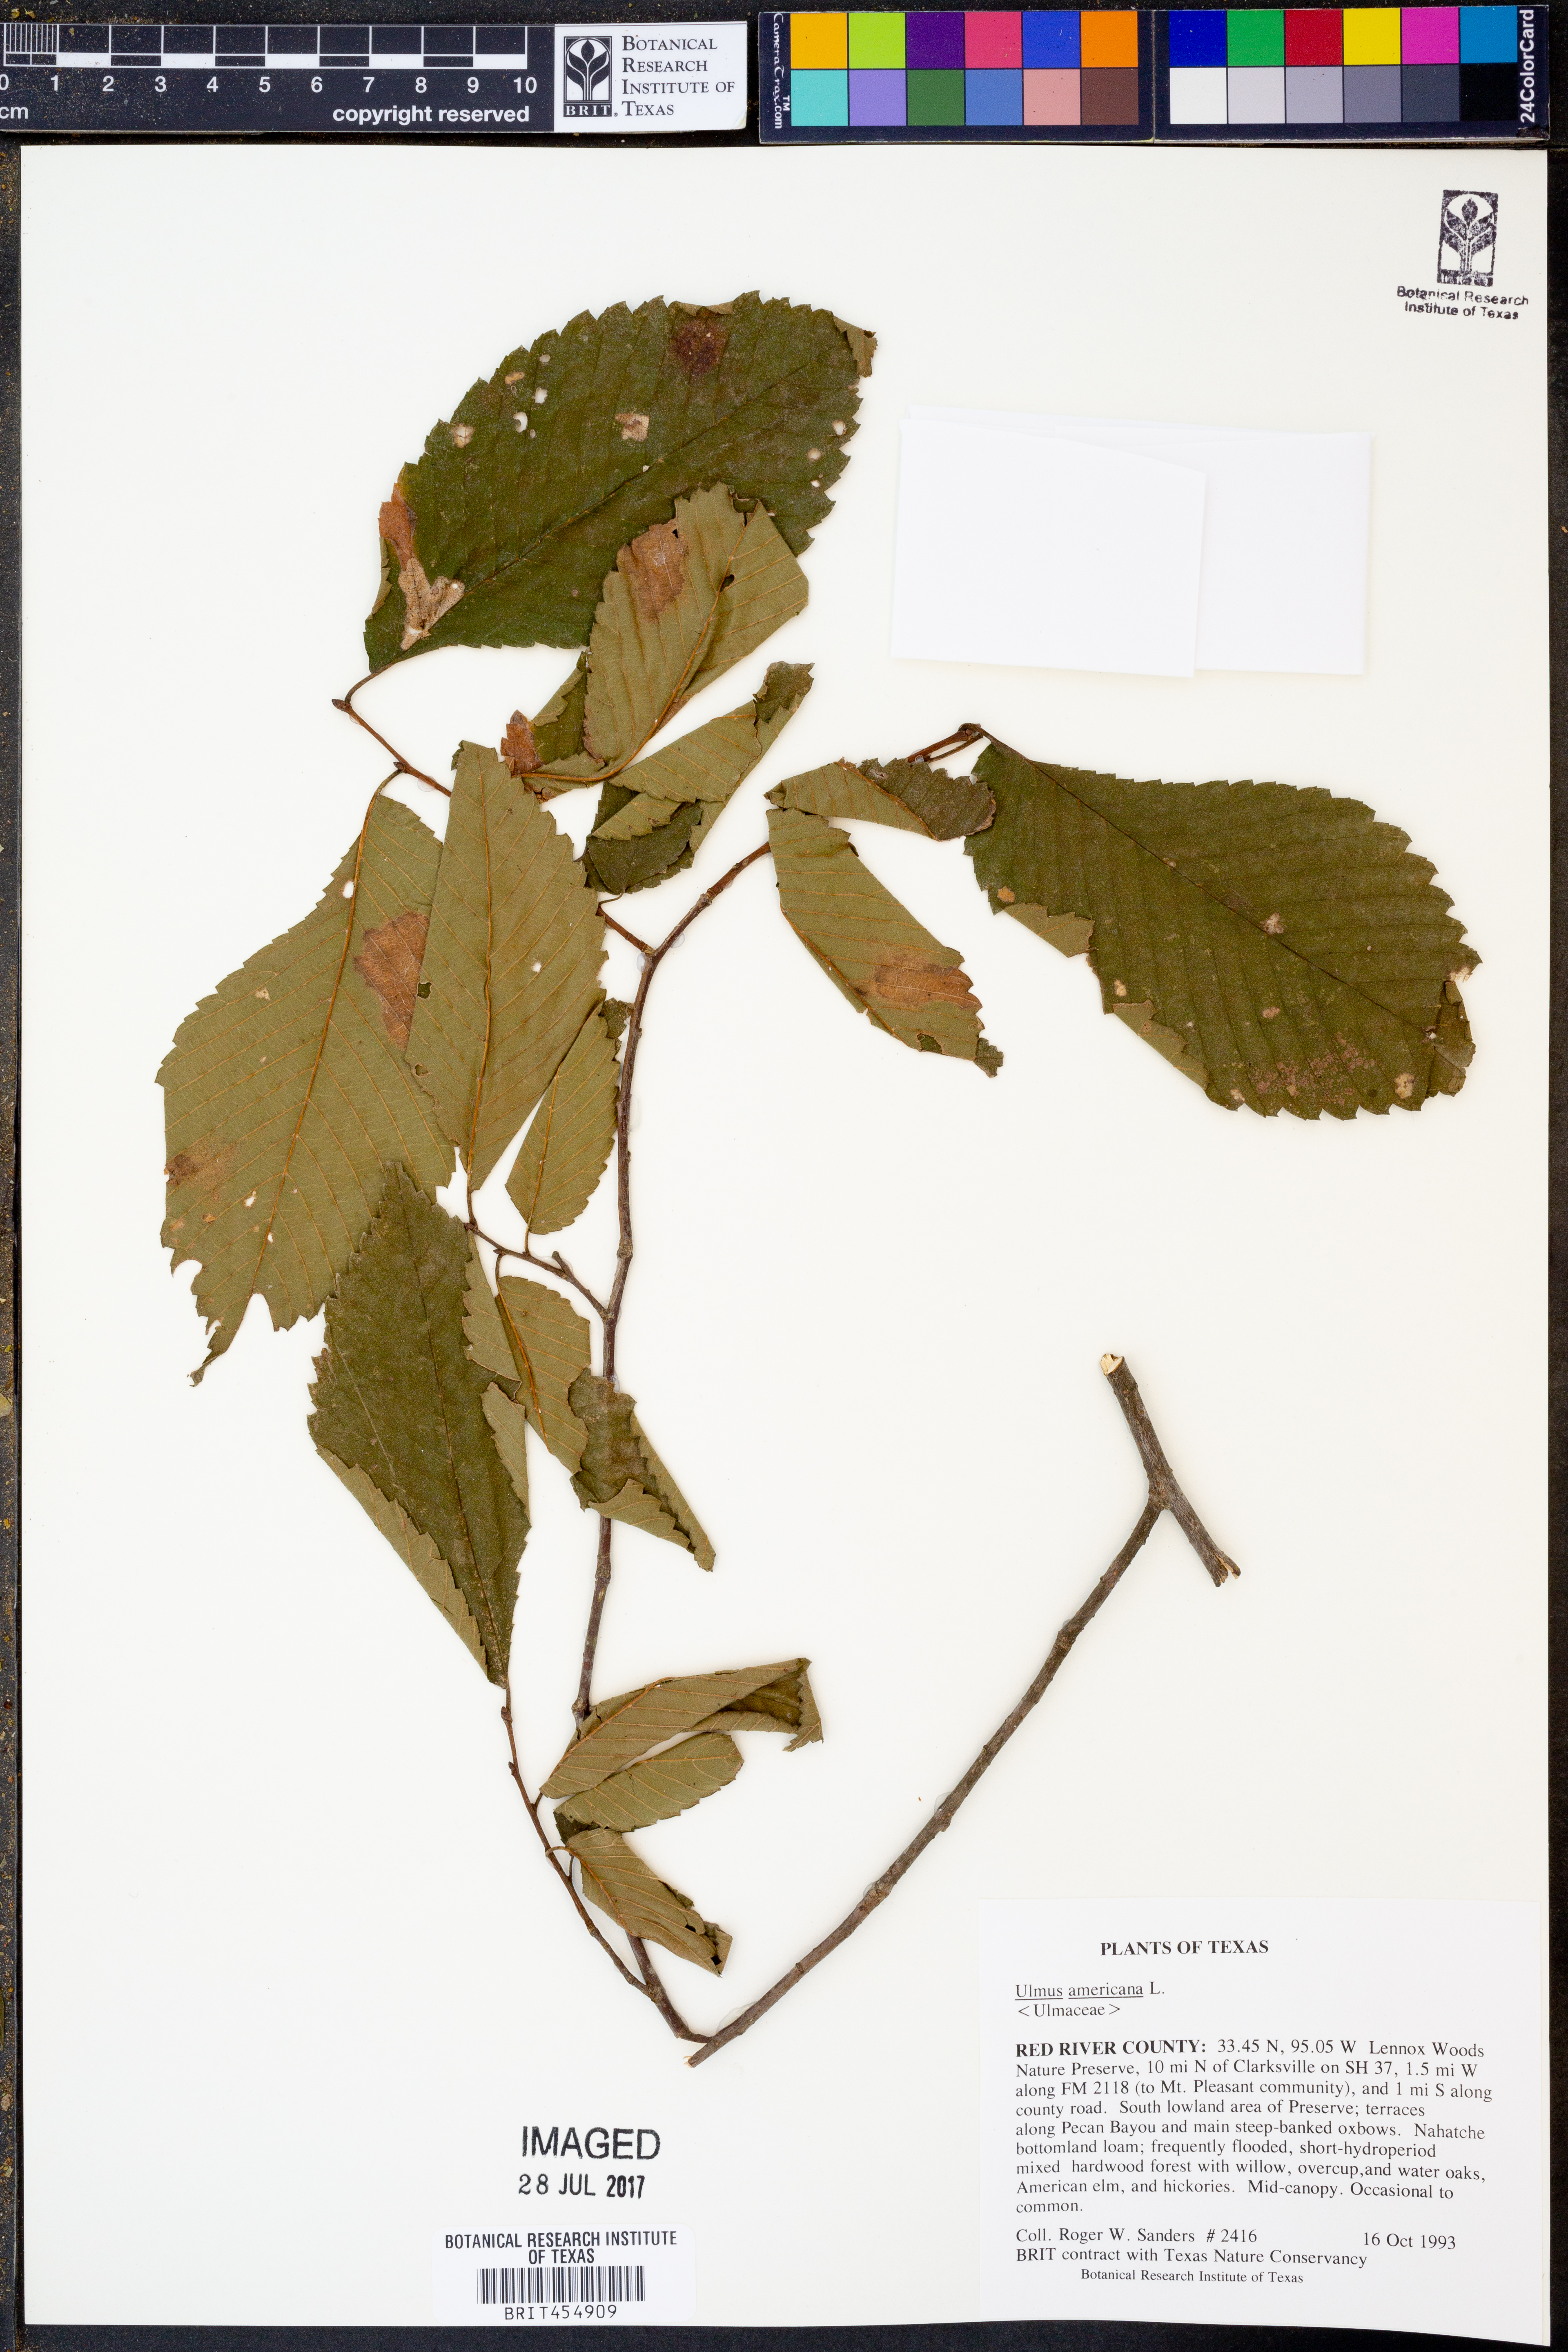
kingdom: Plantae
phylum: Tracheophyta
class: Magnoliopsida
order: Rosales
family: Ulmaceae
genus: Ulmus
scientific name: Ulmus americana
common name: American elm
